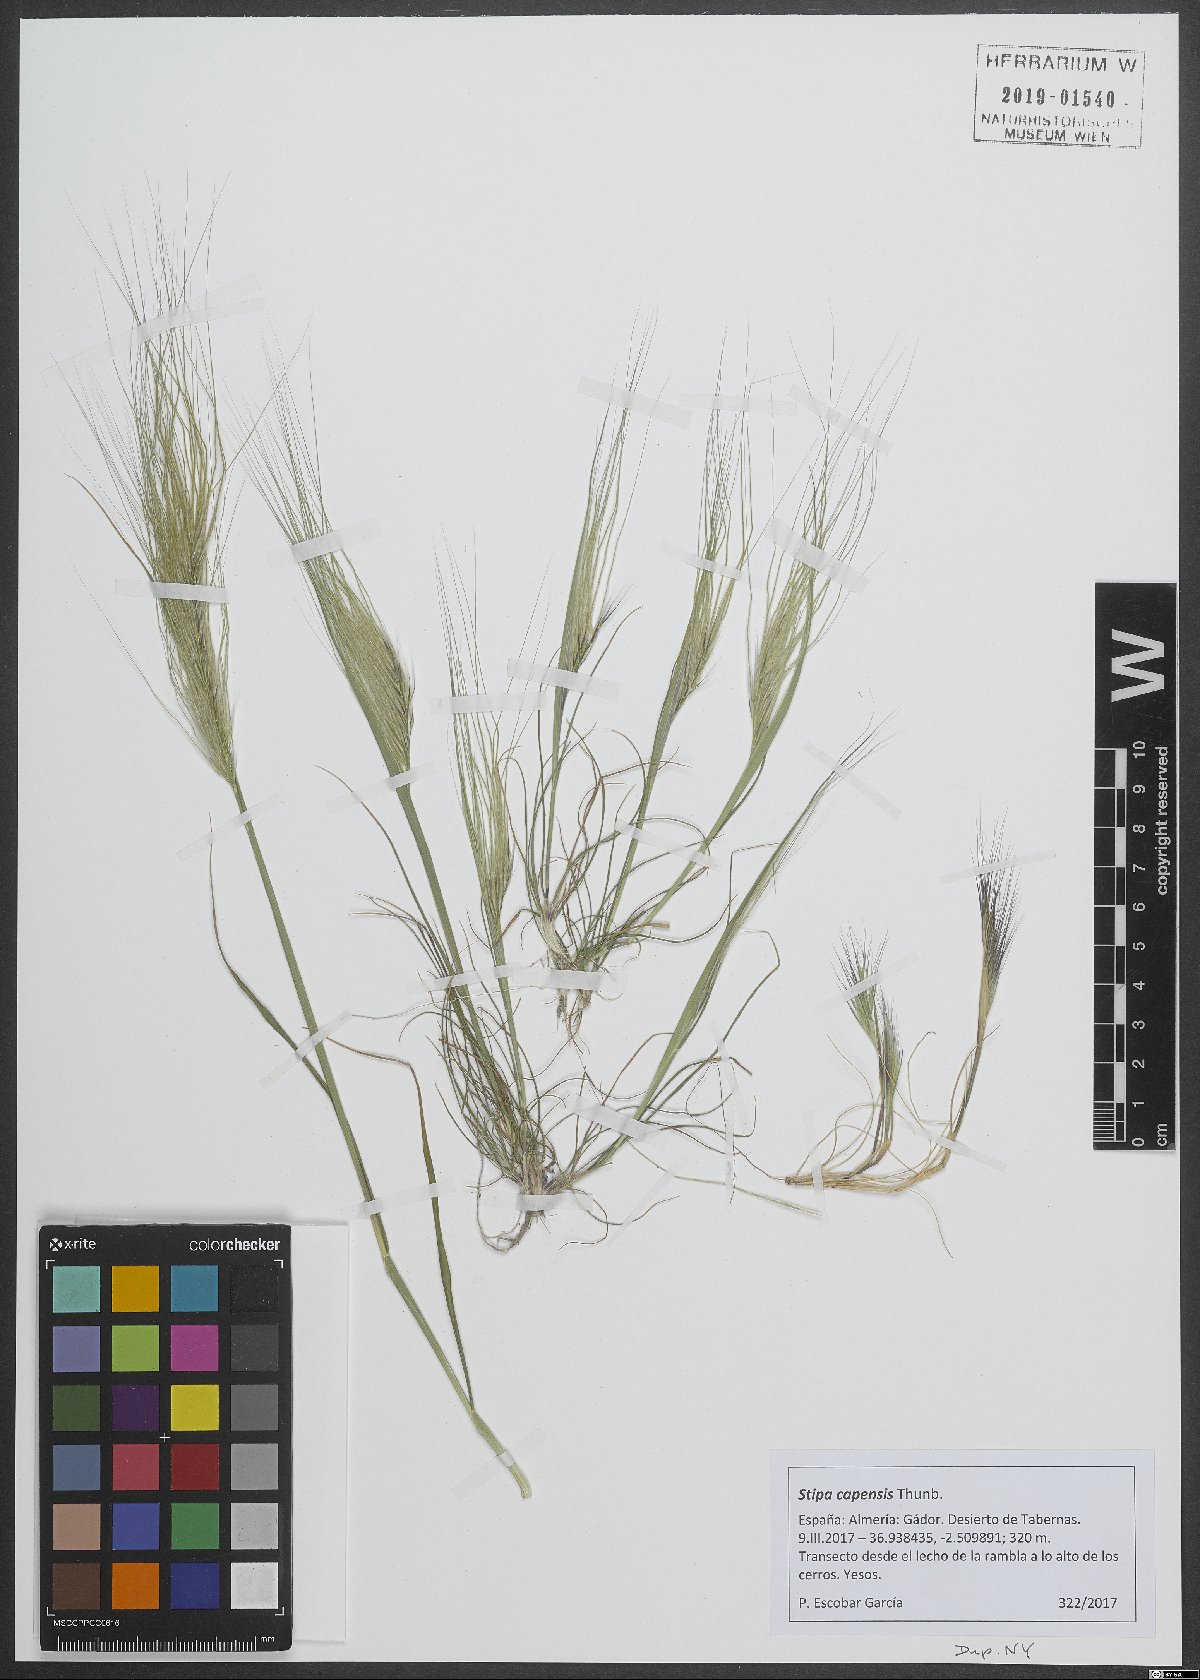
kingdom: Plantae
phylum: Tracheophyta
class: Liliopsida
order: Poales
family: Poaceae
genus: Stipellula
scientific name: Stipellula capensis
